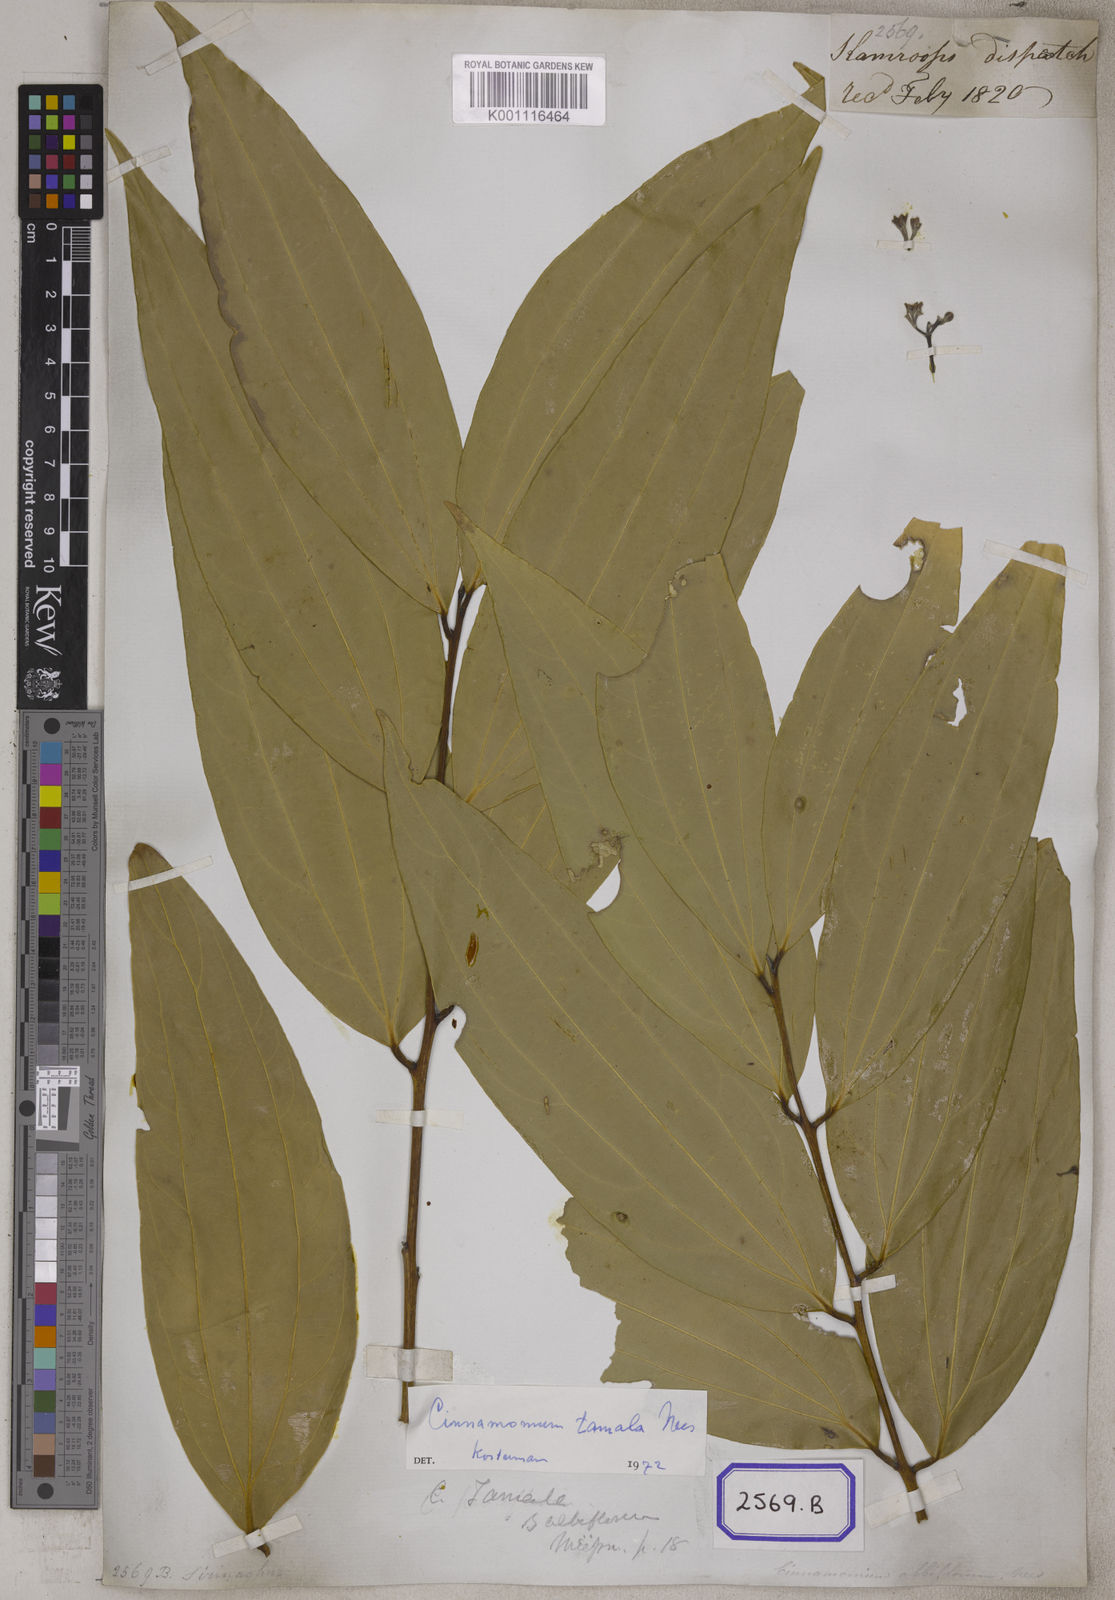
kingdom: Plantae
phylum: Tracheophyta
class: Magnoliopsida
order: Laurales
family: Lauraceae
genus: Cinnamomum
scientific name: Cinnamomum tamala
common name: Indian bay leaves
